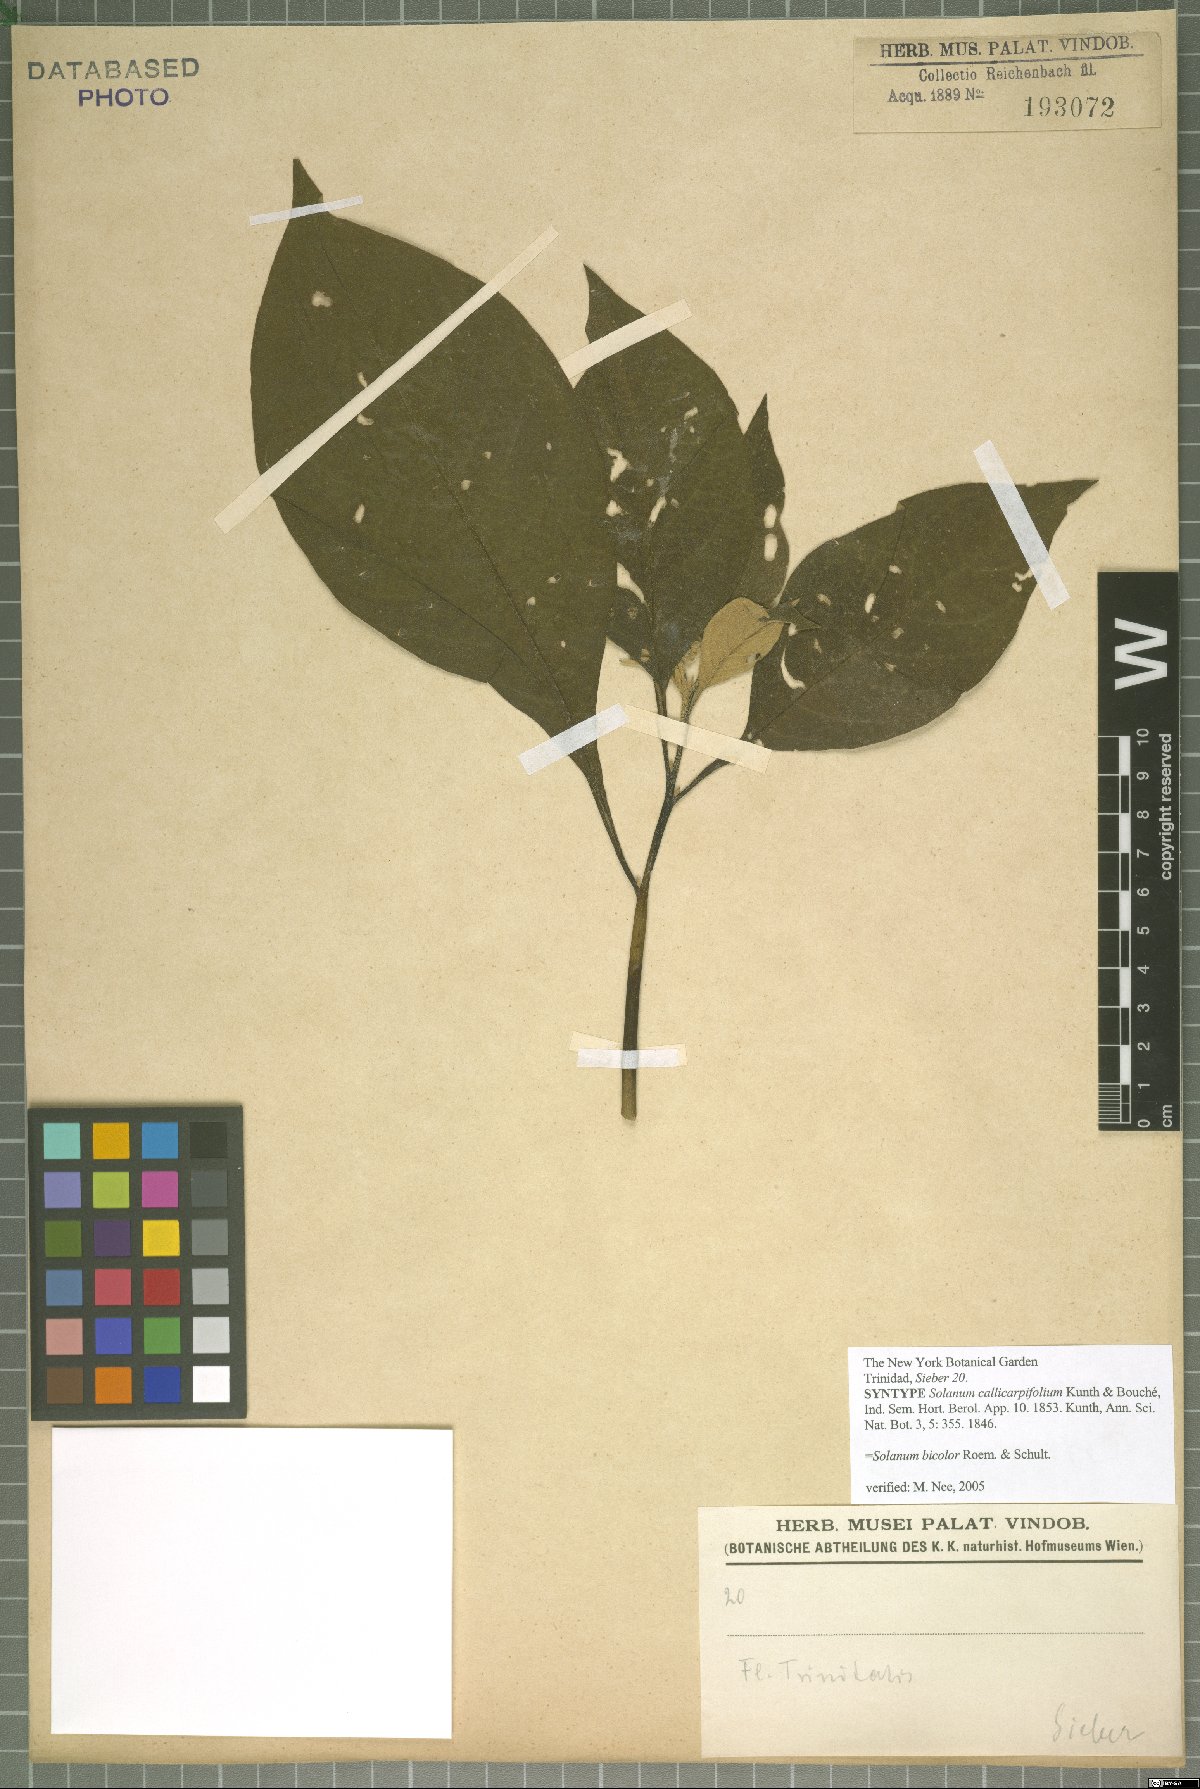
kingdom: Plantae
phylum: Tracheophyta
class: Magnoliopsida
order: Solanales
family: Solanaceae
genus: Solanum
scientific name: Solanum bicolor
